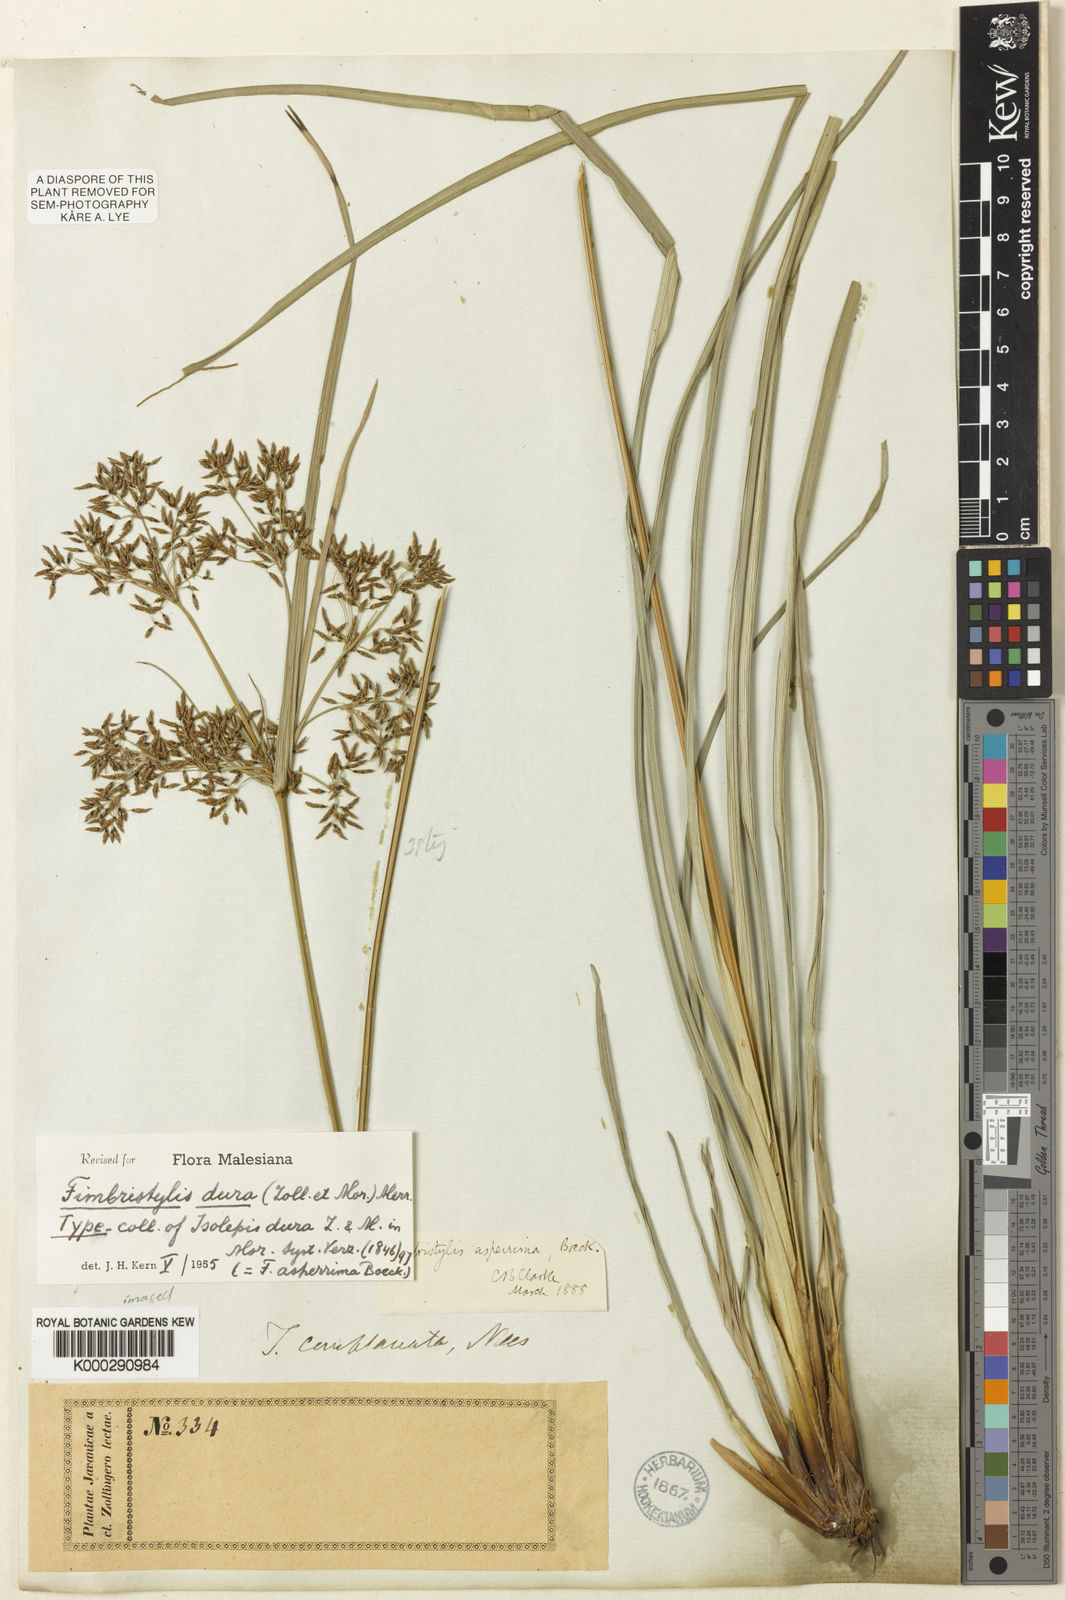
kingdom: Plantae
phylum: Tracheophyta
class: Liliopsida
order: Poales
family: Cyperaceae
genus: Fimbristylis
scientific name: Fimbristylis dura
